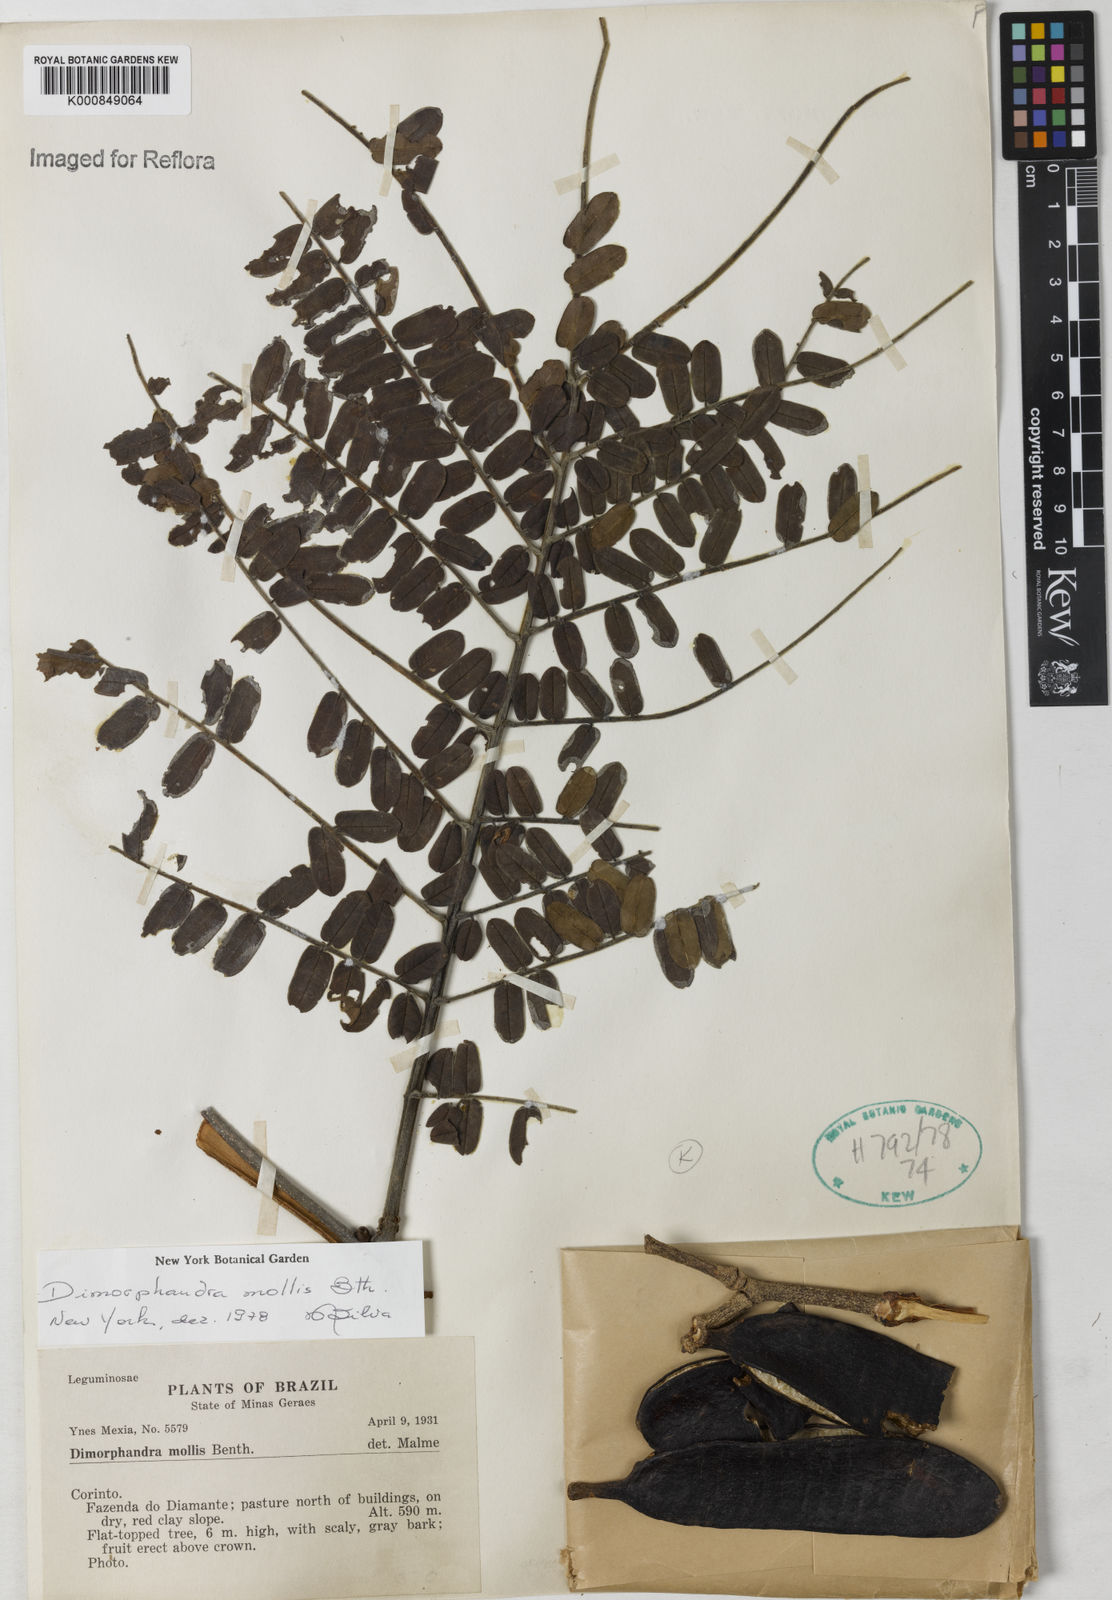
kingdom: Plantae
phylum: Tracheophyta
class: Magnoliopsida
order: Fabales
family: Fabaceae
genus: Dimorphandra
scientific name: Dimorphandra mollis
